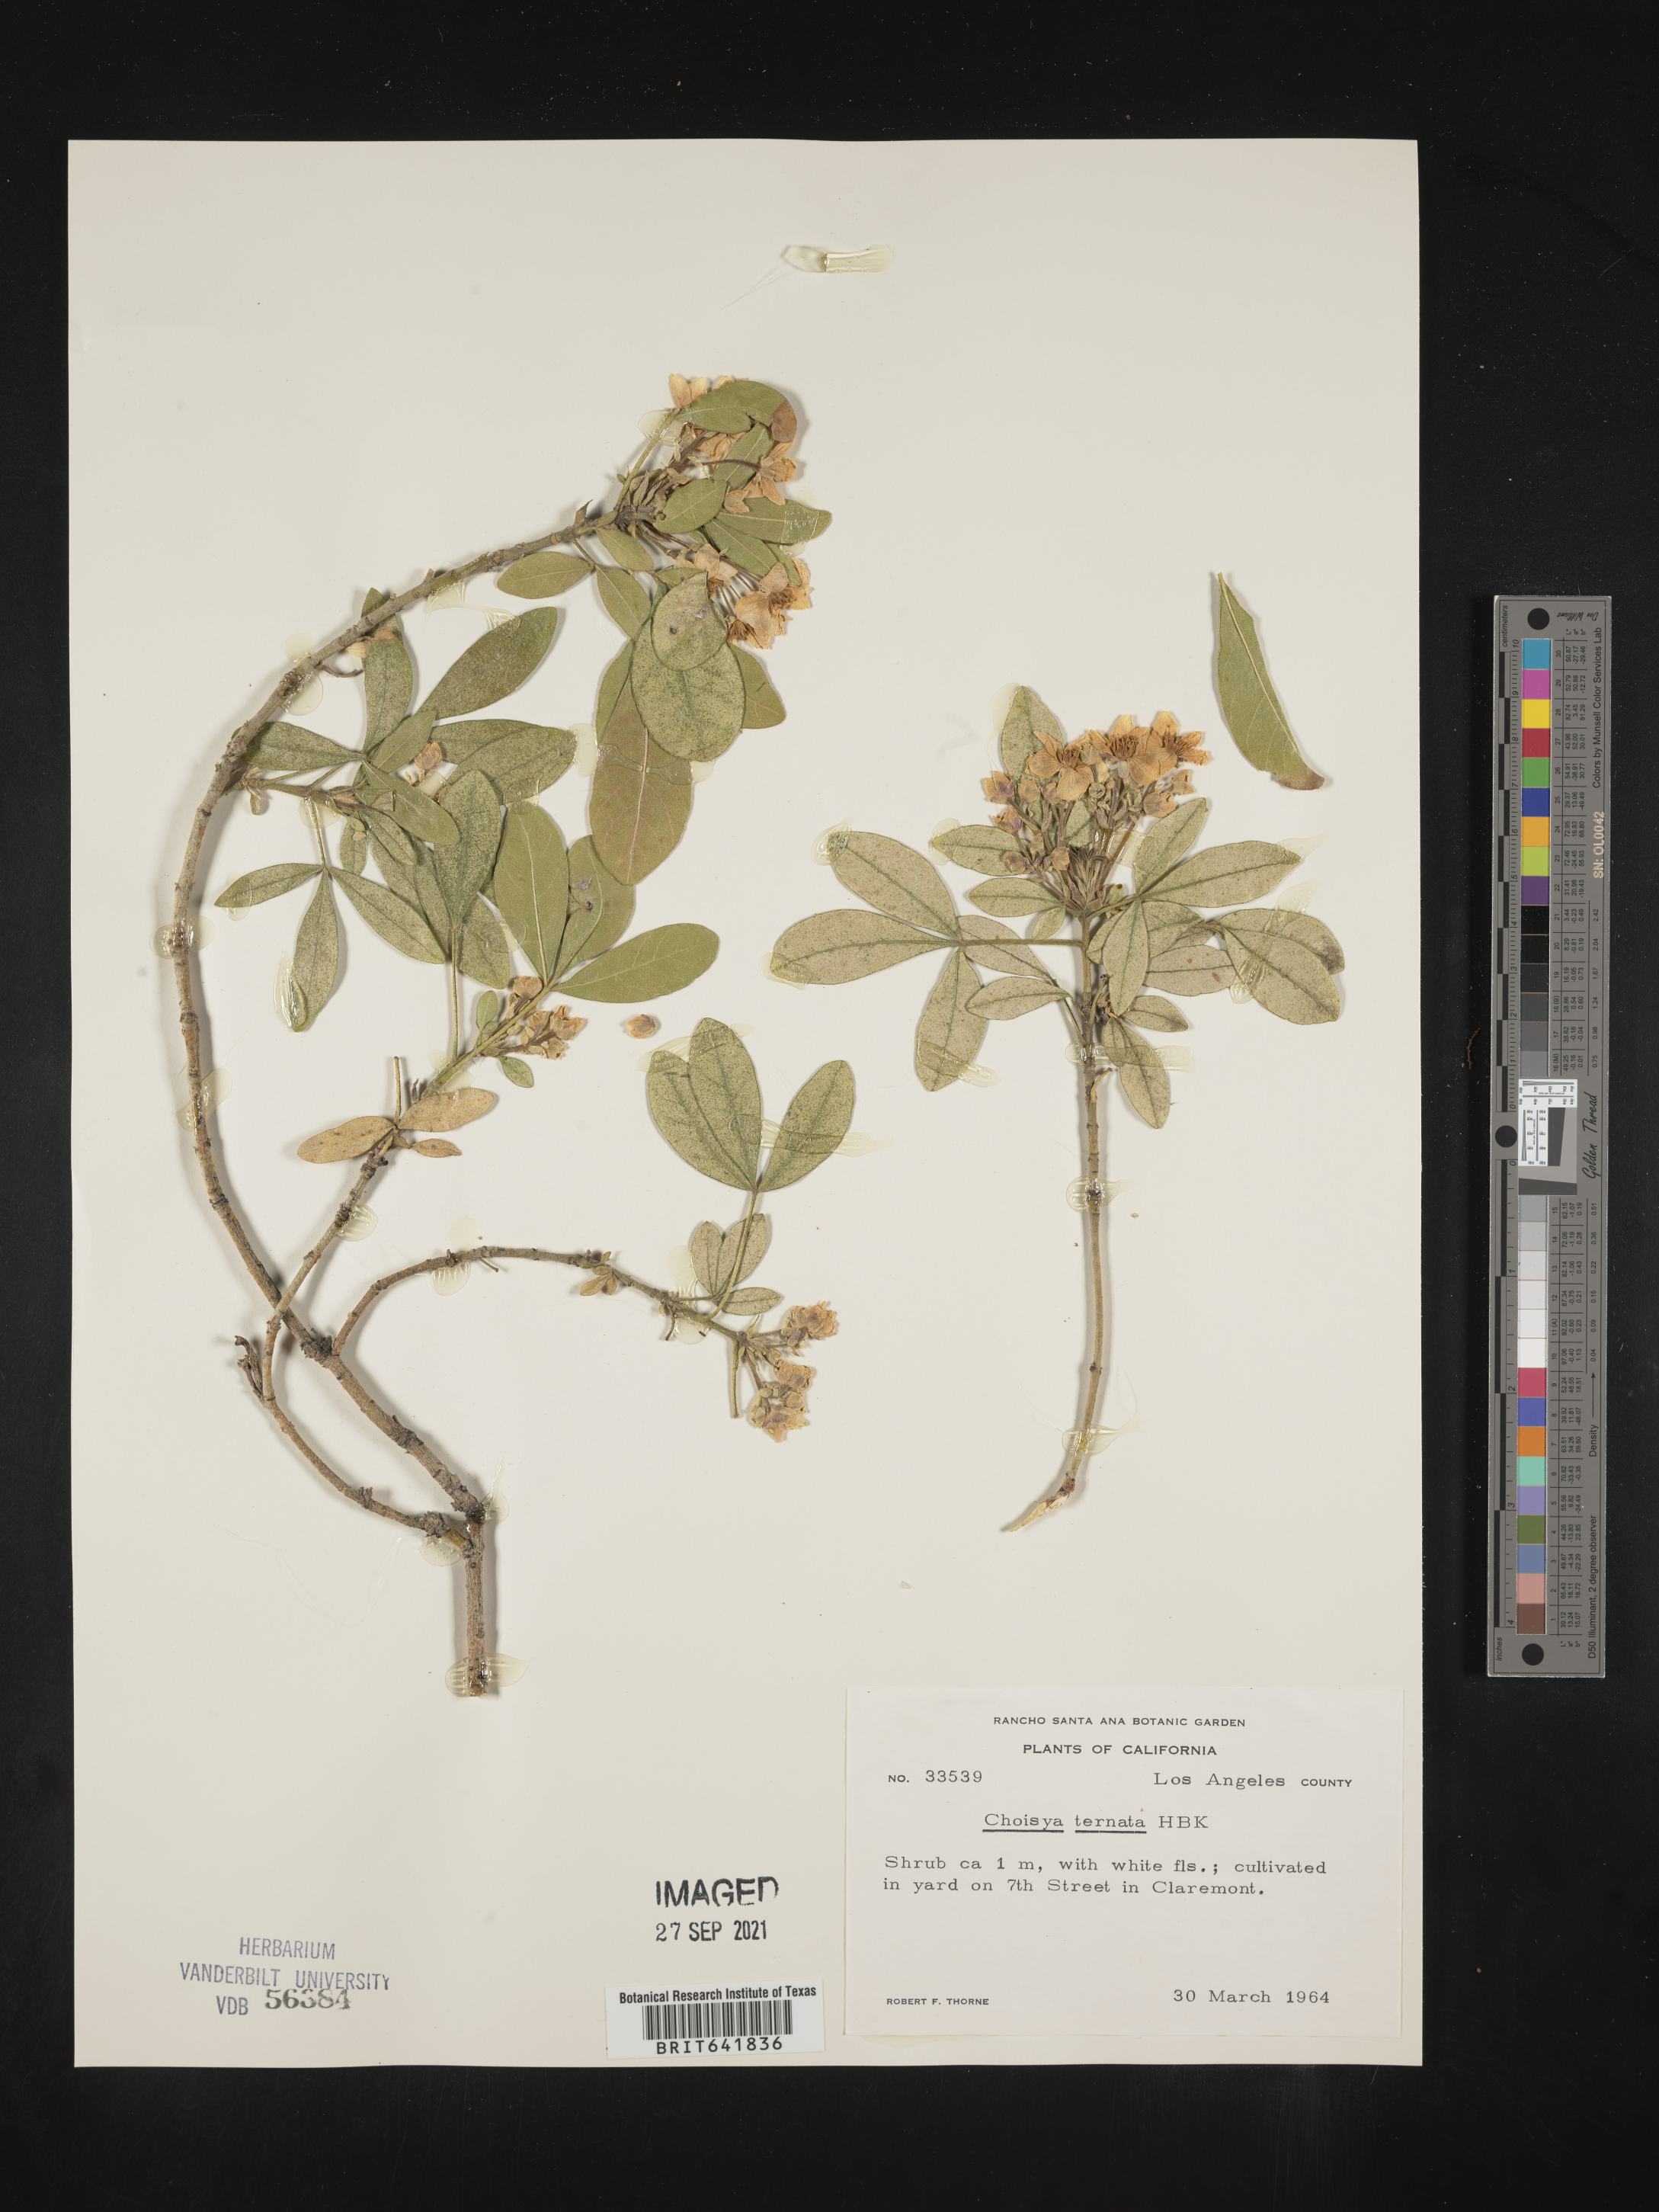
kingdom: Plantae
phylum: Tracheophyta
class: Magnoliopsida
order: Sapindales
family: Rutaceae
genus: Choisya
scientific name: Choisya
